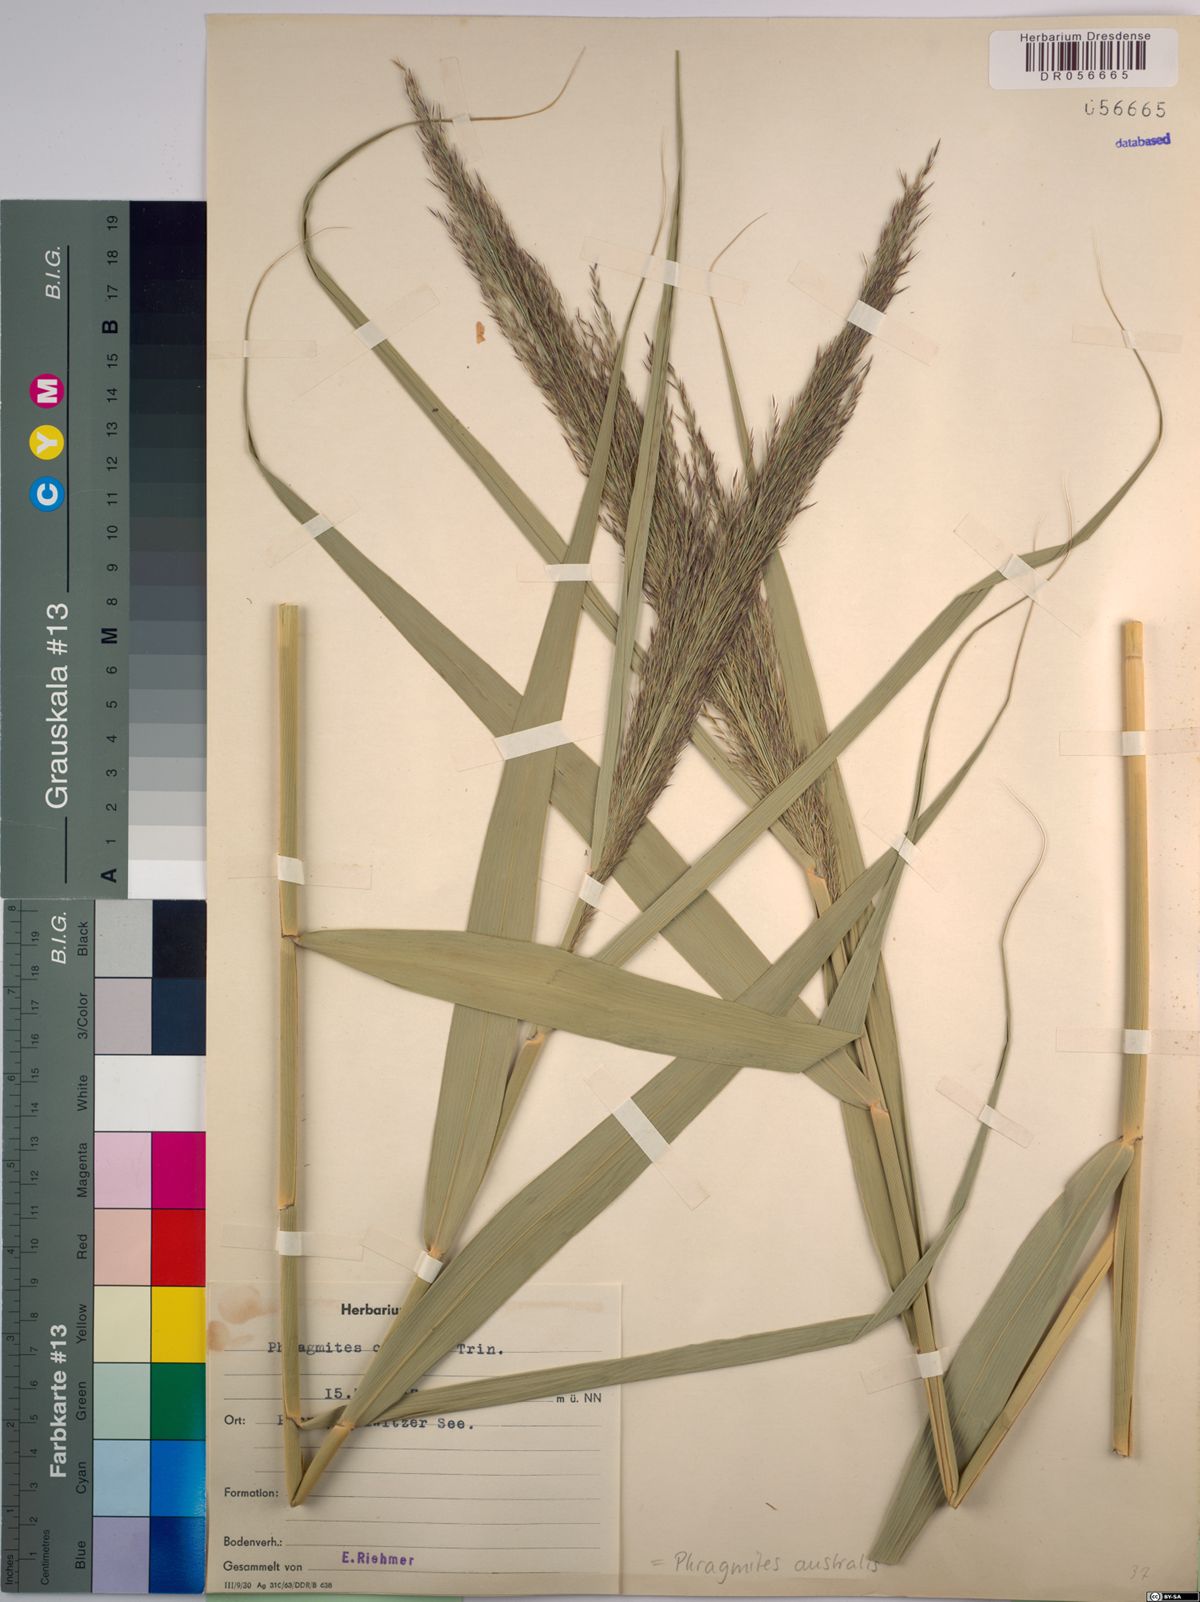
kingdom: Plantae
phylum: Tracheophyta
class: Liliopsida
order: Poales
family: Poaceae
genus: Phragmites
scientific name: Phragmites australis
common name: Common reed
